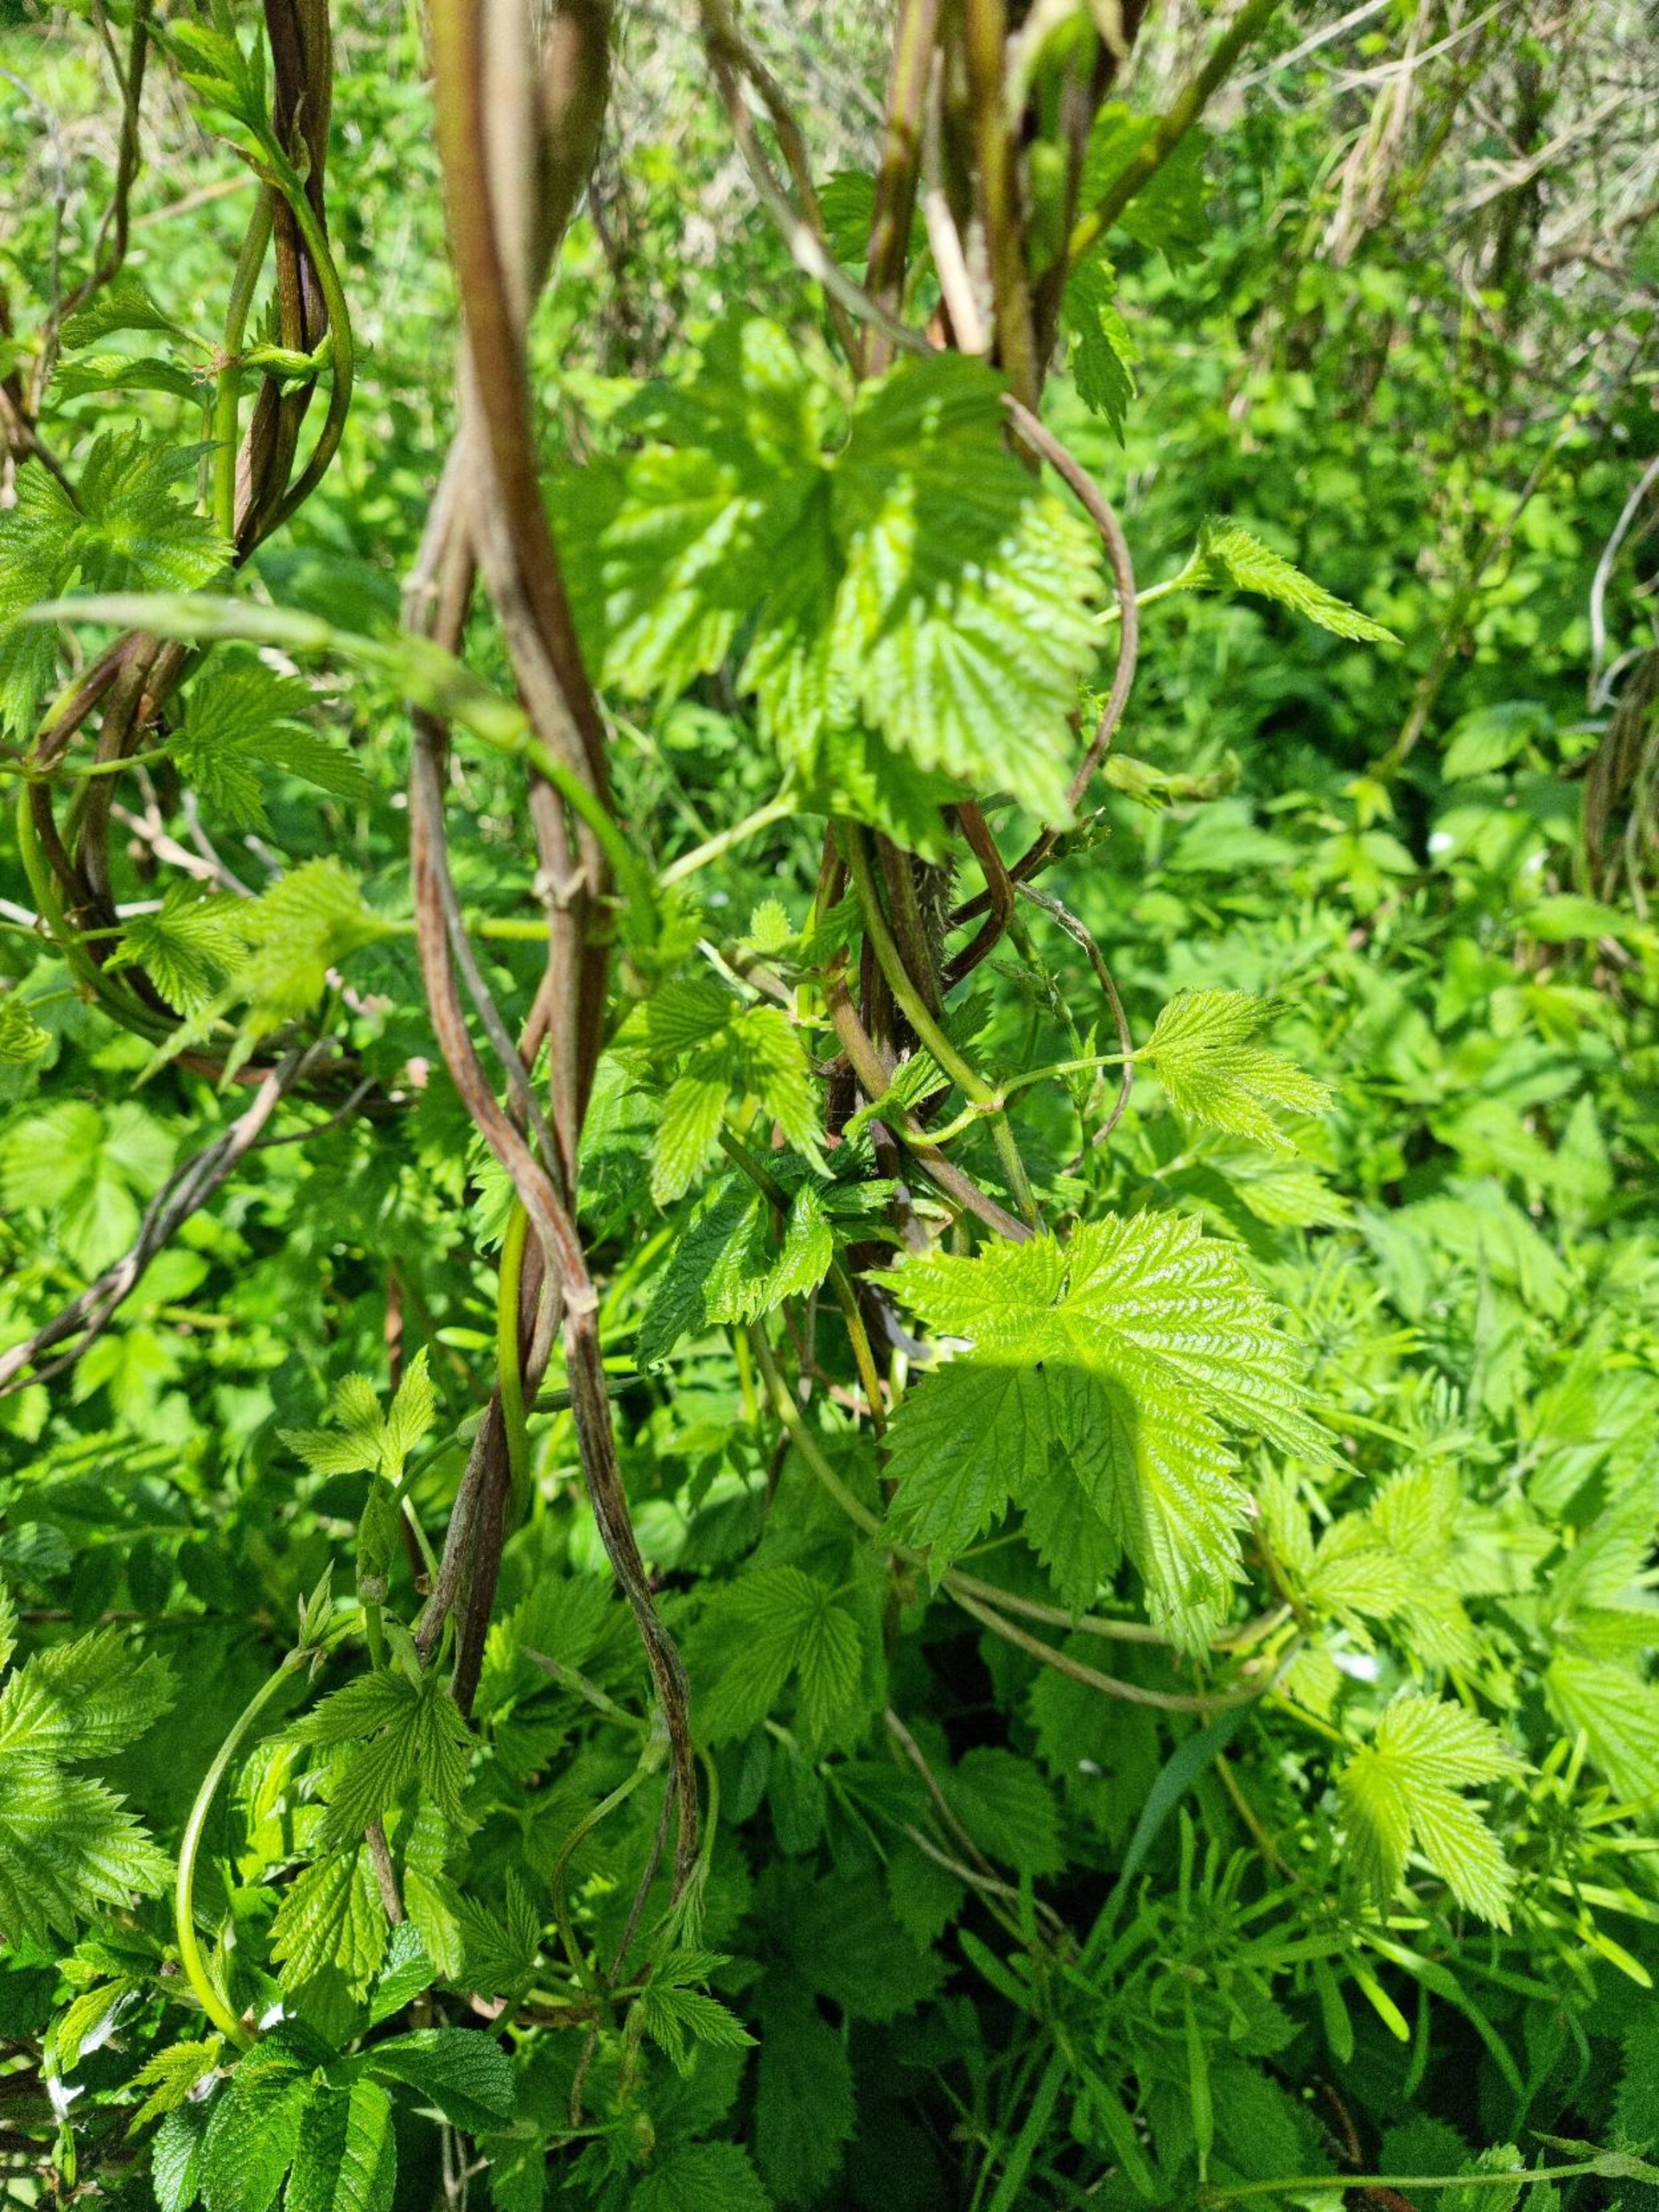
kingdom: Plantae
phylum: Tracheophyta
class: Magnoliopsida
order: Rosales
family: Cannabaceae
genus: Humulus
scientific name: Humulus lupulus
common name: Humle
